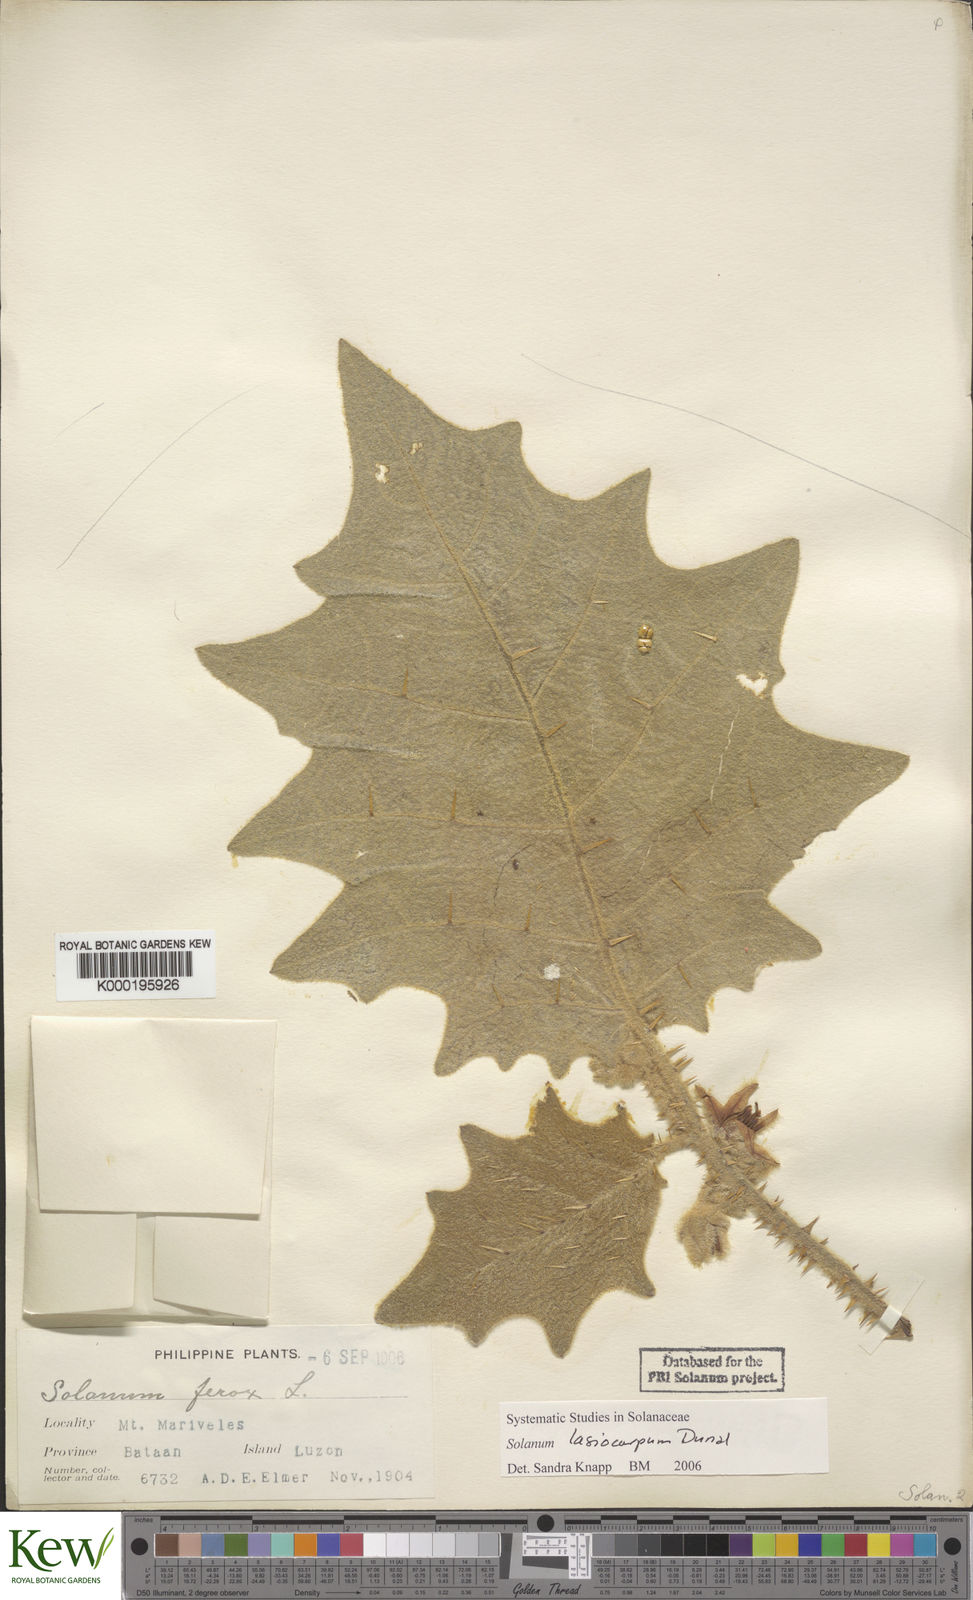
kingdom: Plantae
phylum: Tracheophyta
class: Magnoliopsida
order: Solanales
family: Solanaceae
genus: Solanum
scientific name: Solanum lasiocarpum
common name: Indian nightshade
